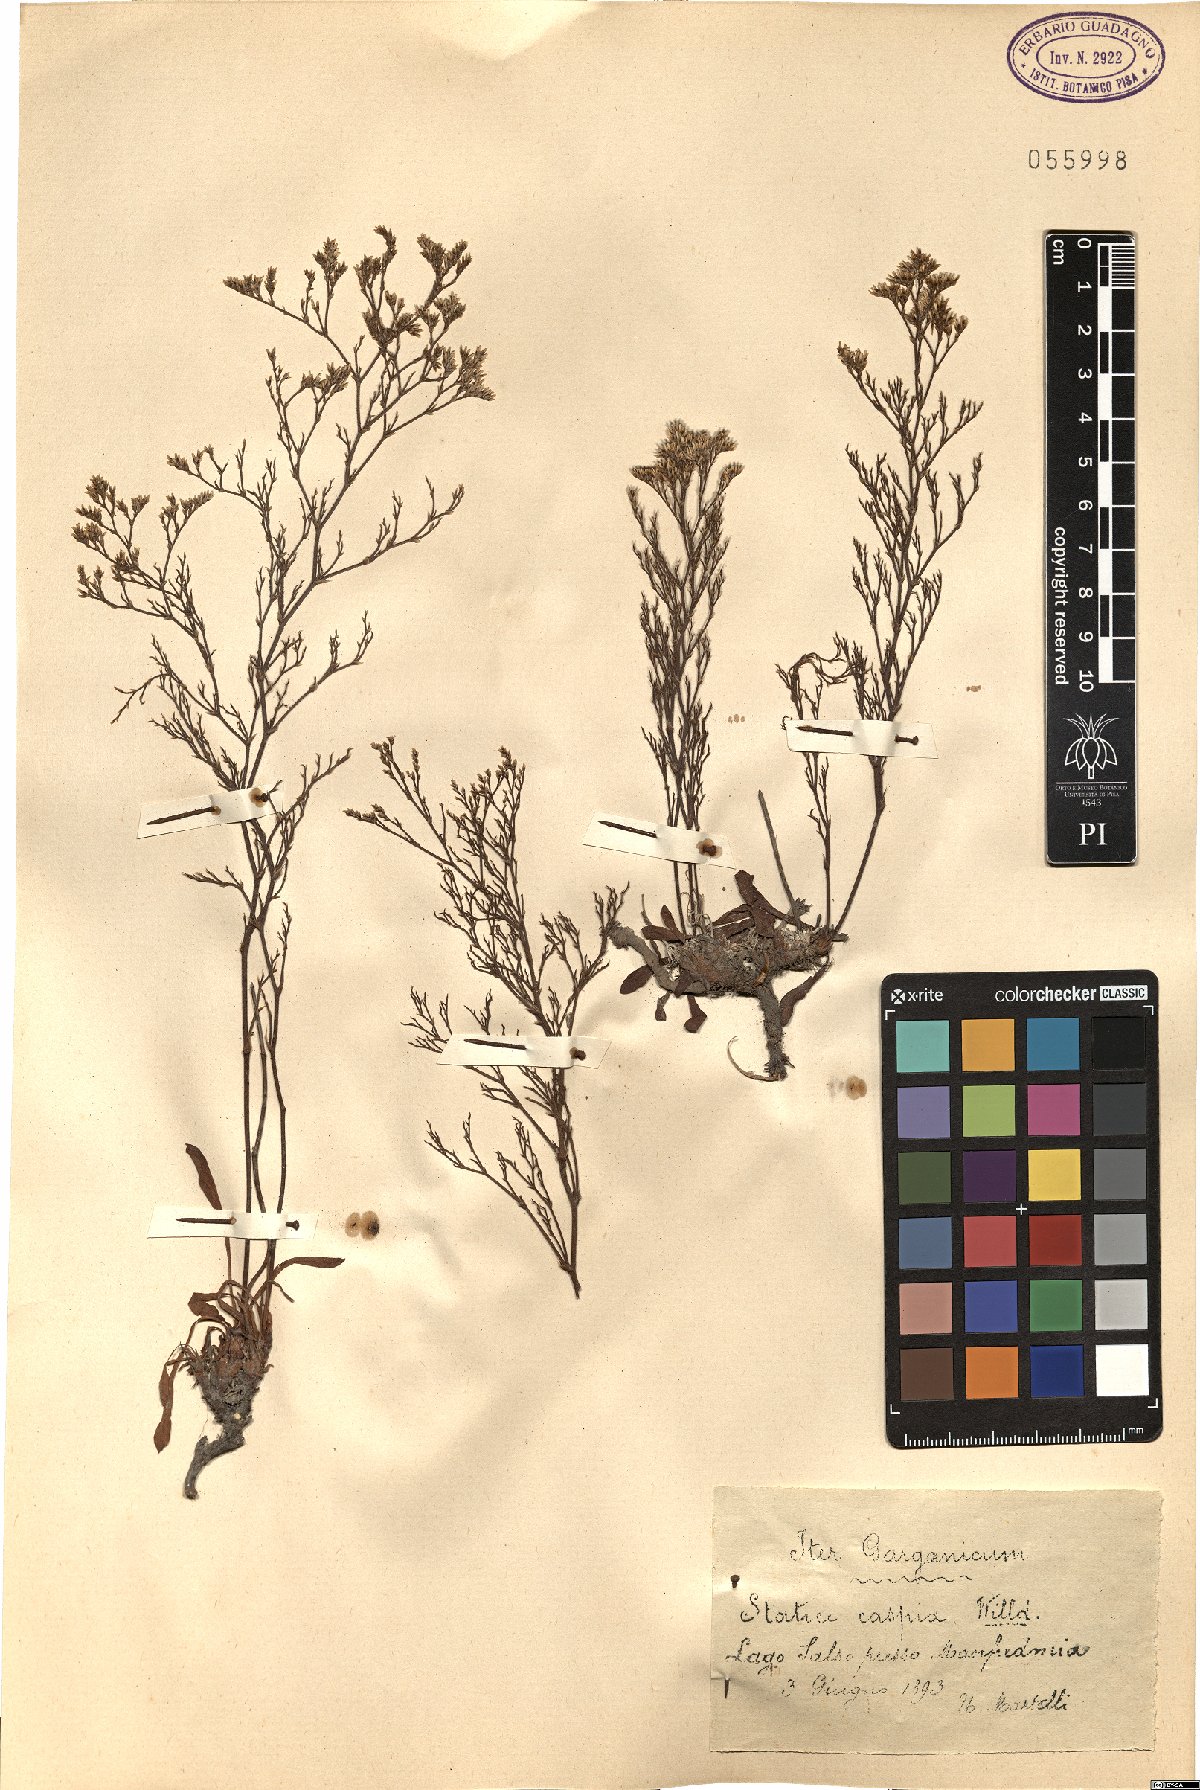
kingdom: Plantae
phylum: Tracheophyta
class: Magnoliopsida
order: Caryophyllales
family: Plumbaginaceae
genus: Limonium
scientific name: Limonium bellidifolium
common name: Matted sea-lavender
